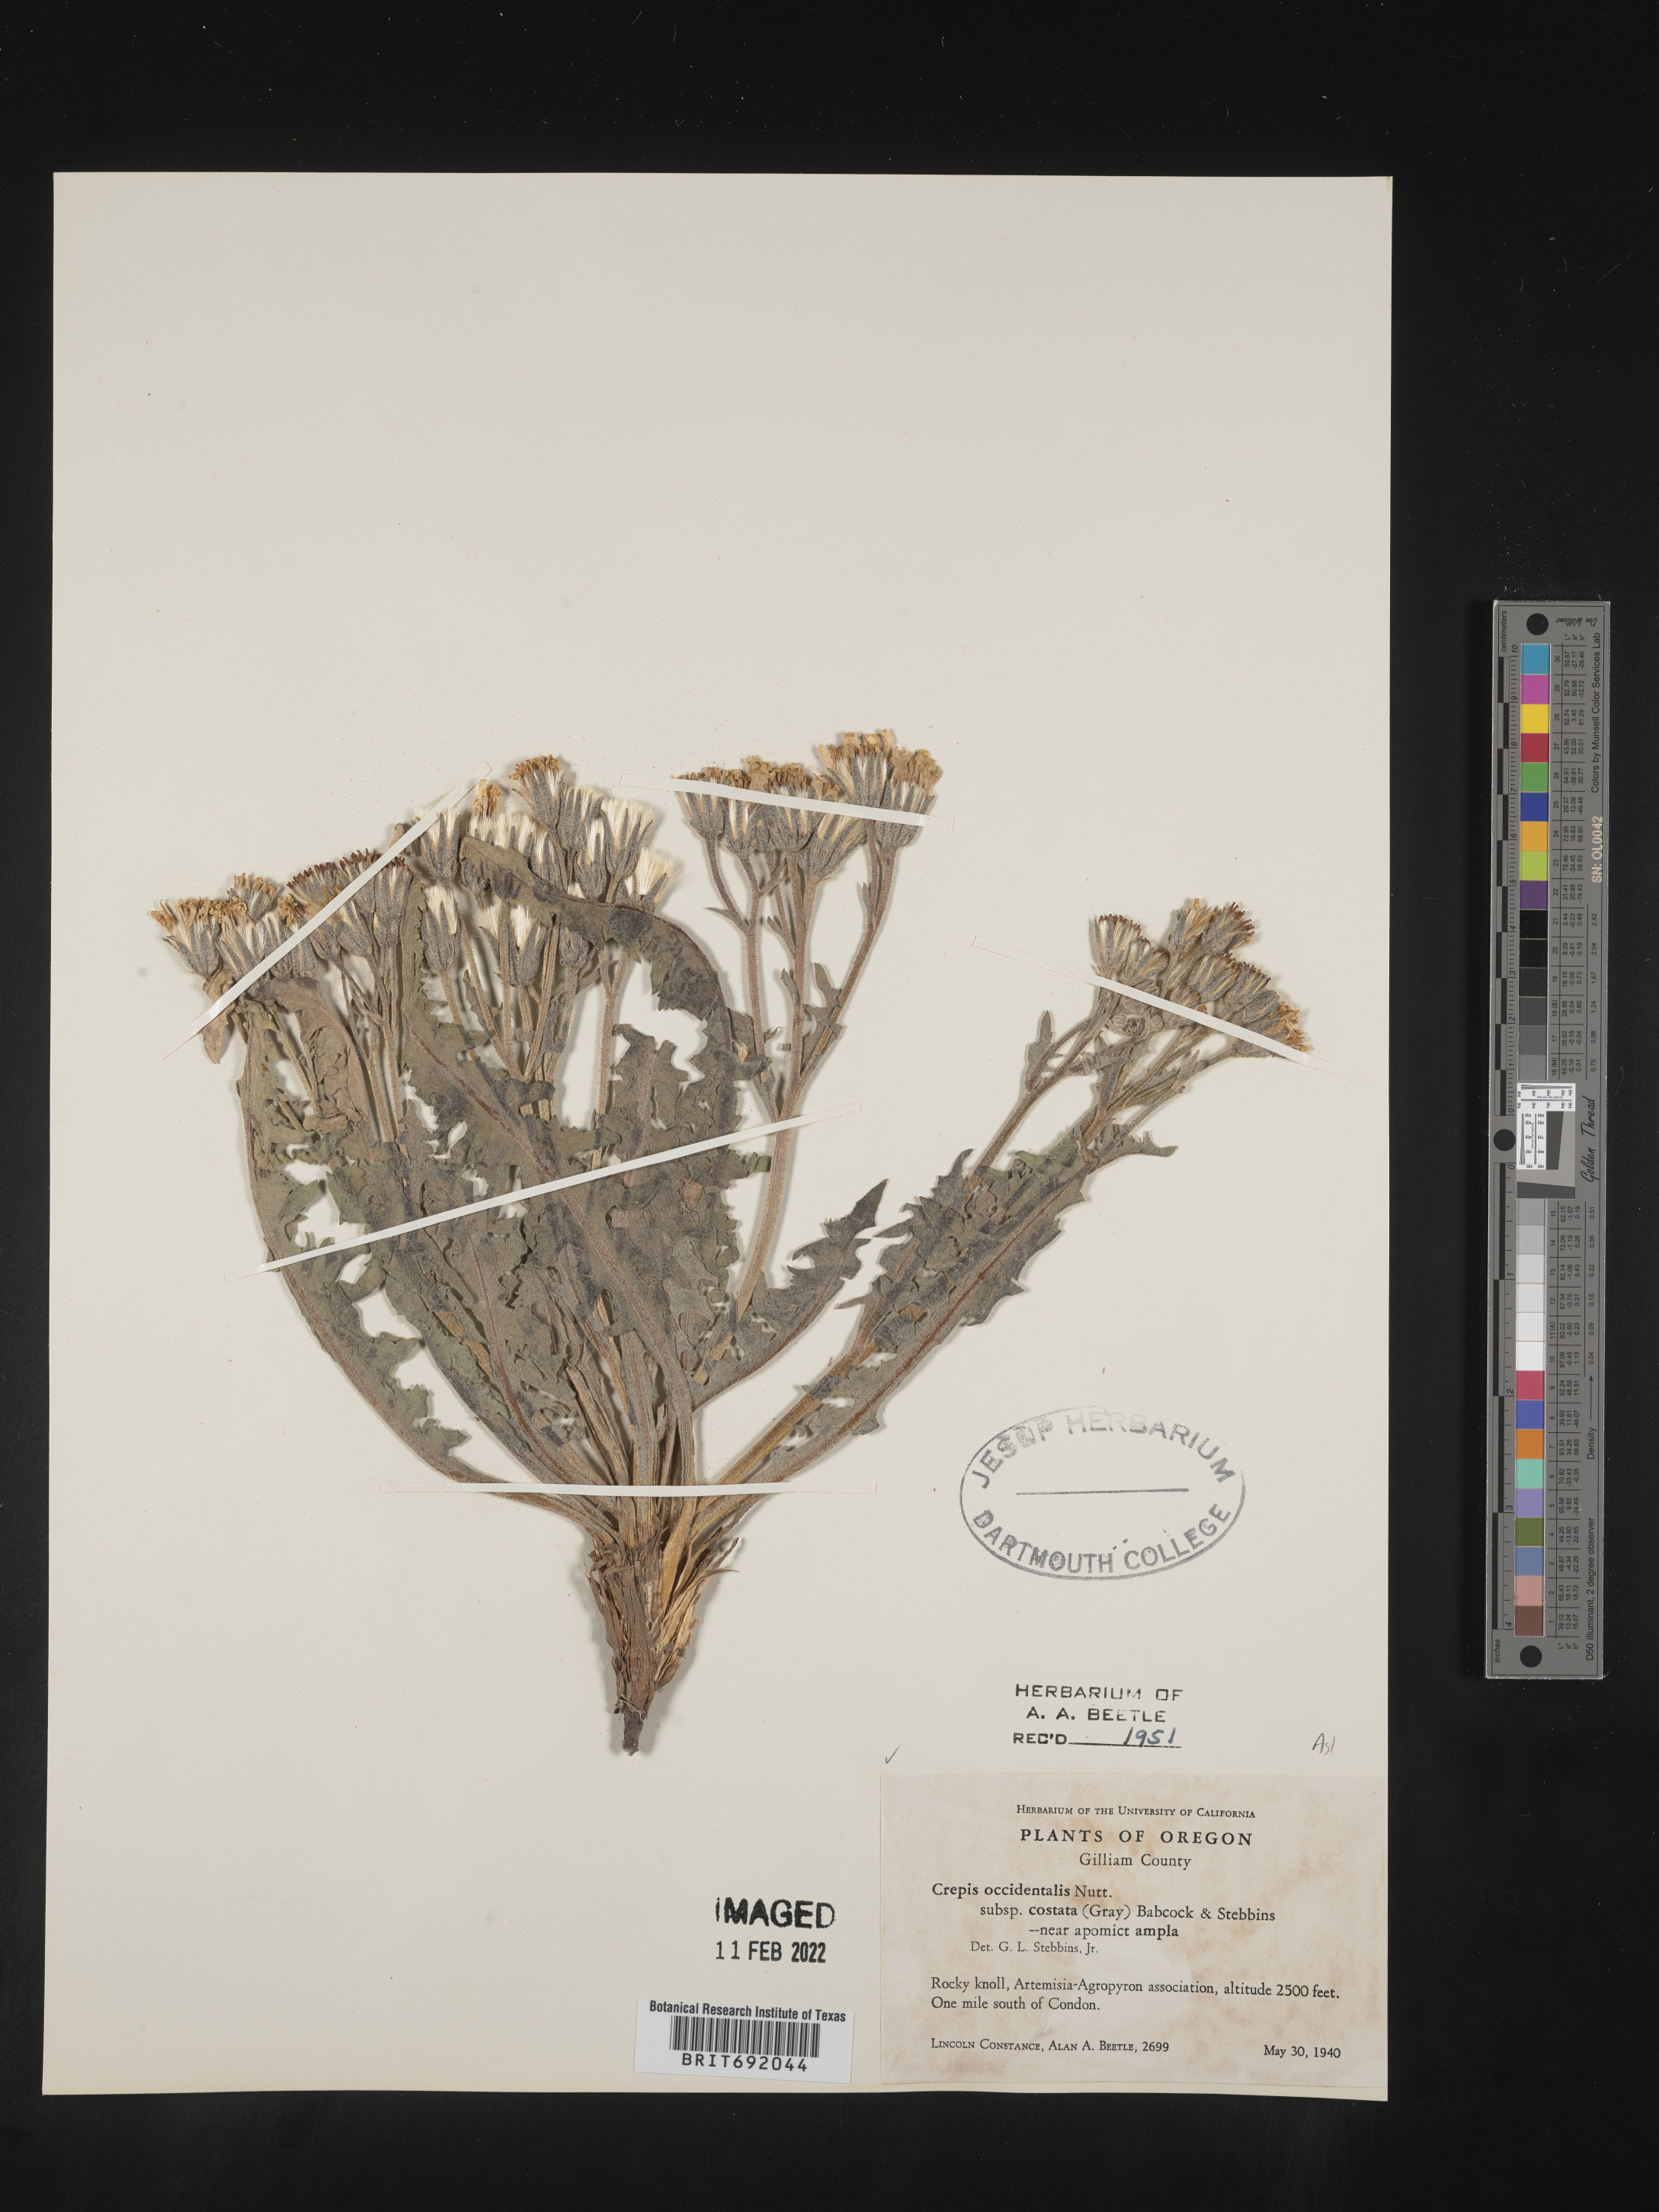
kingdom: Plantae
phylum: Tracheophyta
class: Magnoliopsida
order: Asterales
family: Asteraceae
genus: Crepis
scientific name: Crepis occidentalis
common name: Gray hawk's-beard
